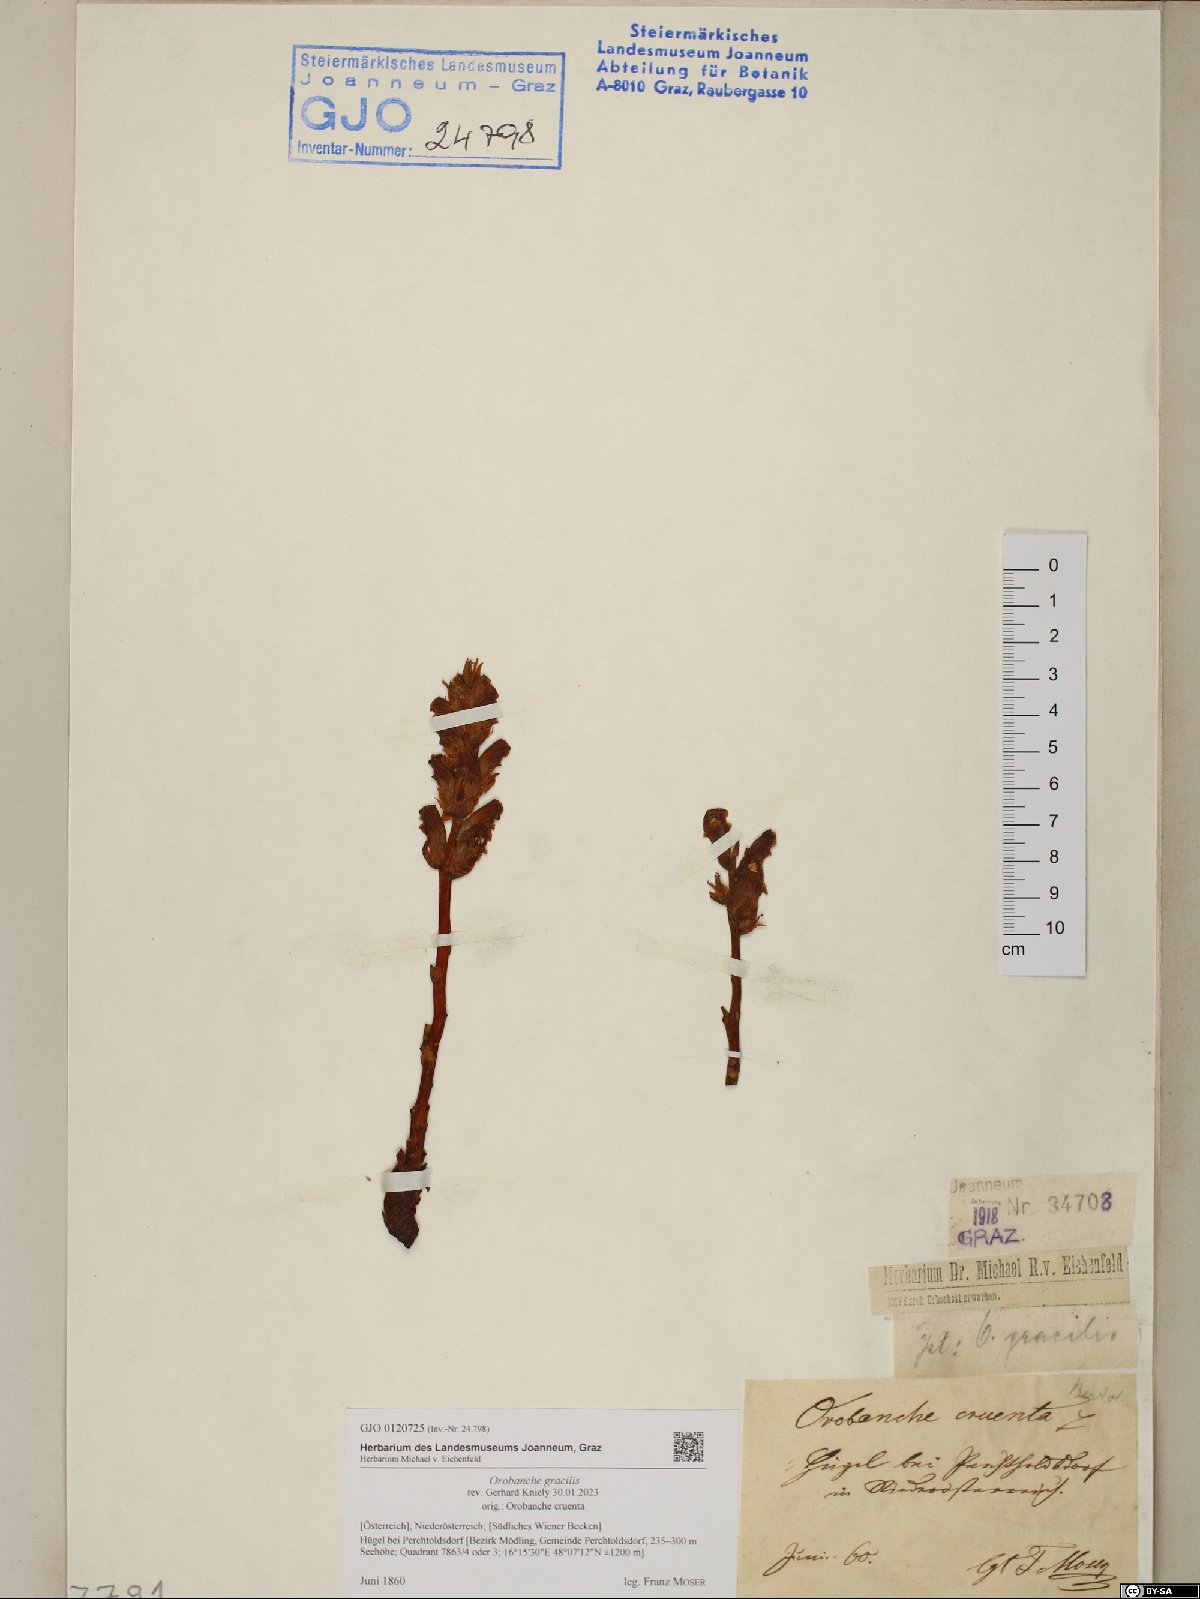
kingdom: Plantae
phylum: Tracheophyta
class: Magnoliopsida
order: Lamiales
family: Orobanchaceae
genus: Orobanche
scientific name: Orobanche gracilis
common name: Slender broomrape
